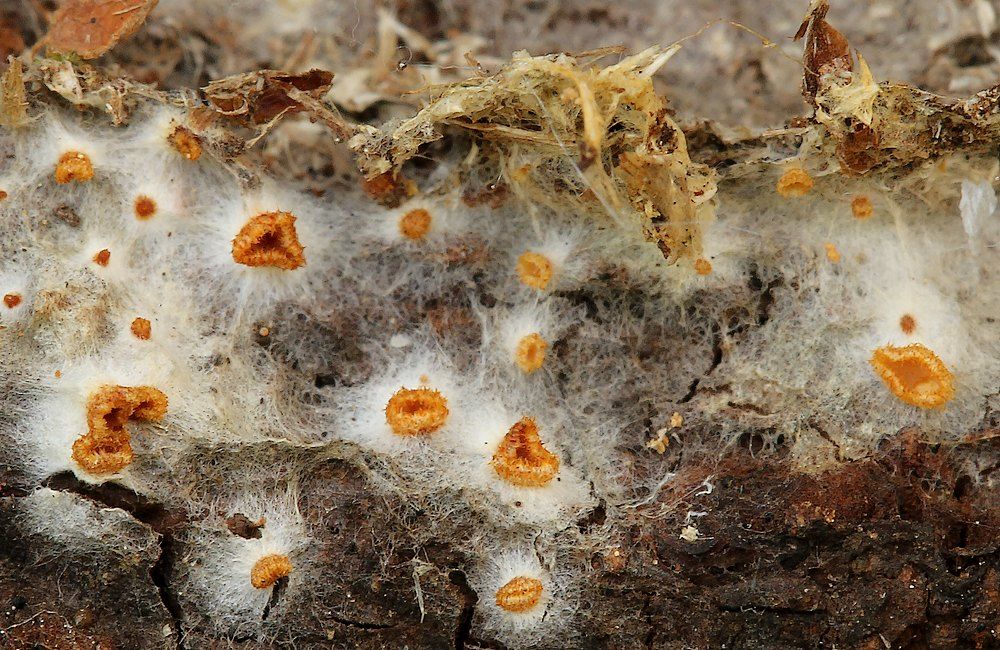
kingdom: Fungi
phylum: Ascomycota
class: Leotiomycetes
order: Helotiales
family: Arachnopezizaceae
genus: Arachnopeziza
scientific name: Arachnopeziza aurelia
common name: flamme-spindskive
